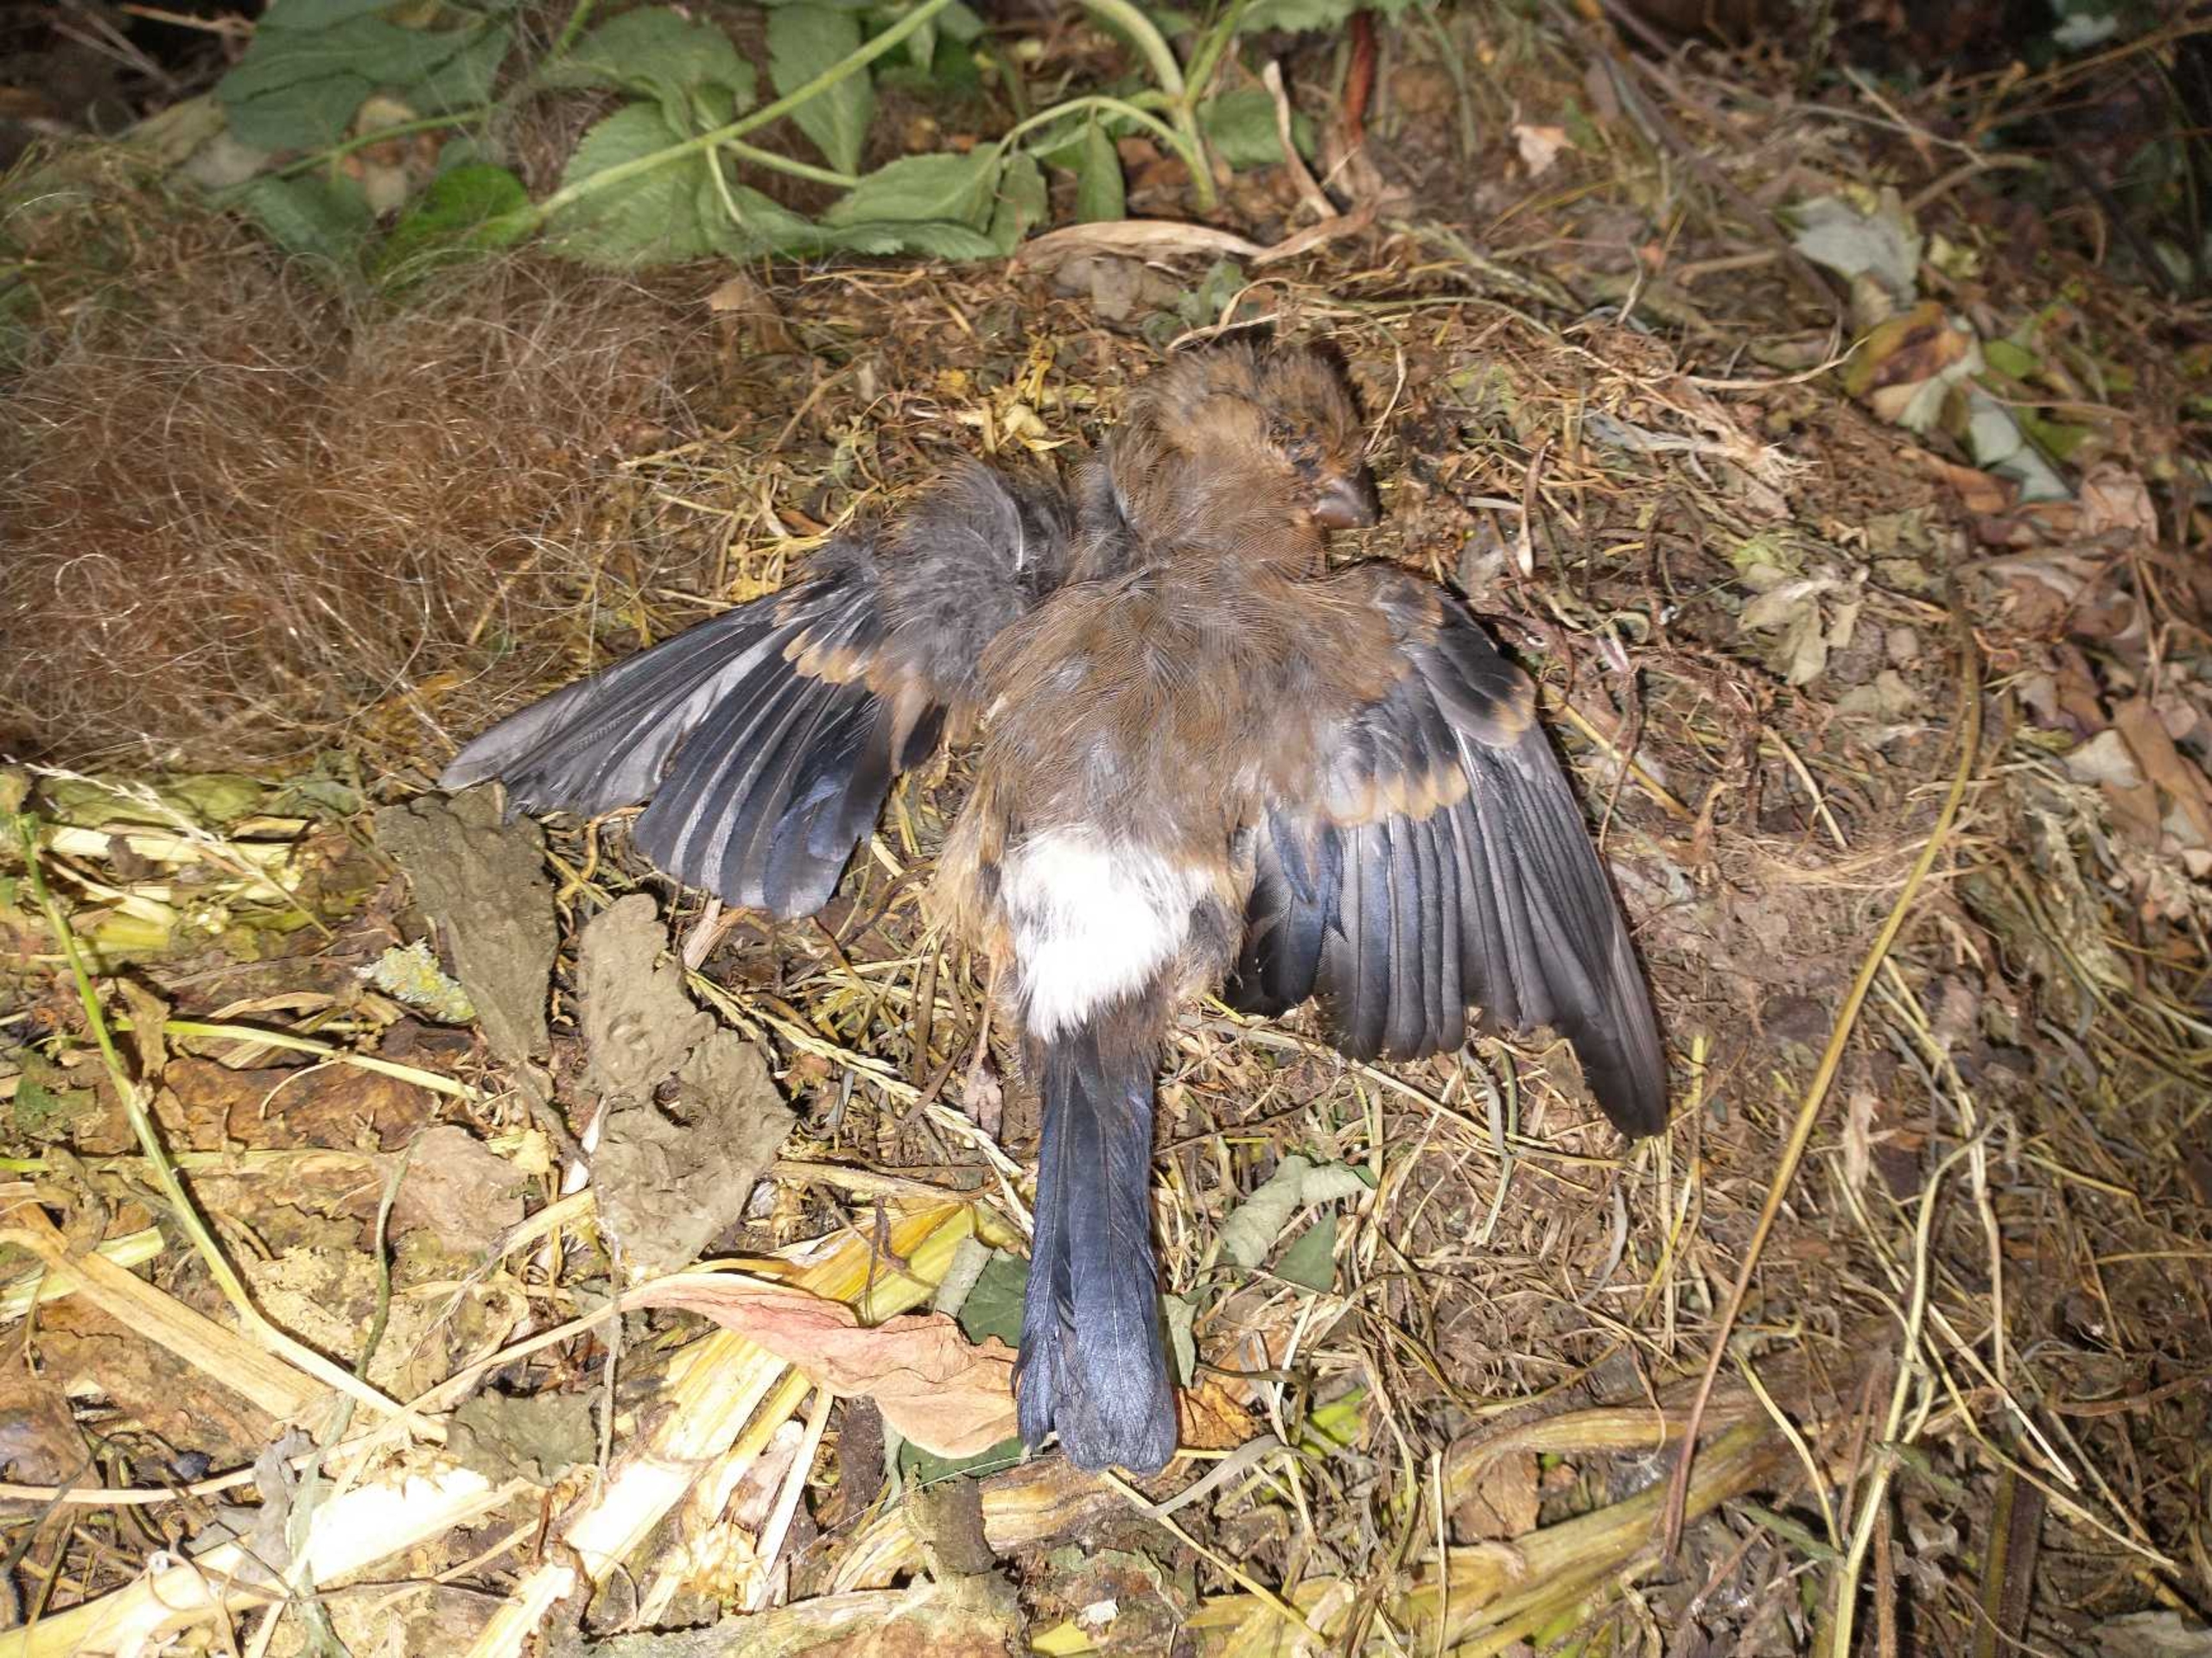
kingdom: Animalia
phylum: Chordata
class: Aves
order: Passeriformes
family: Fringillidae
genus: Pyrrhula
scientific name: Pyrrhula pyrrhula
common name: Dompap
